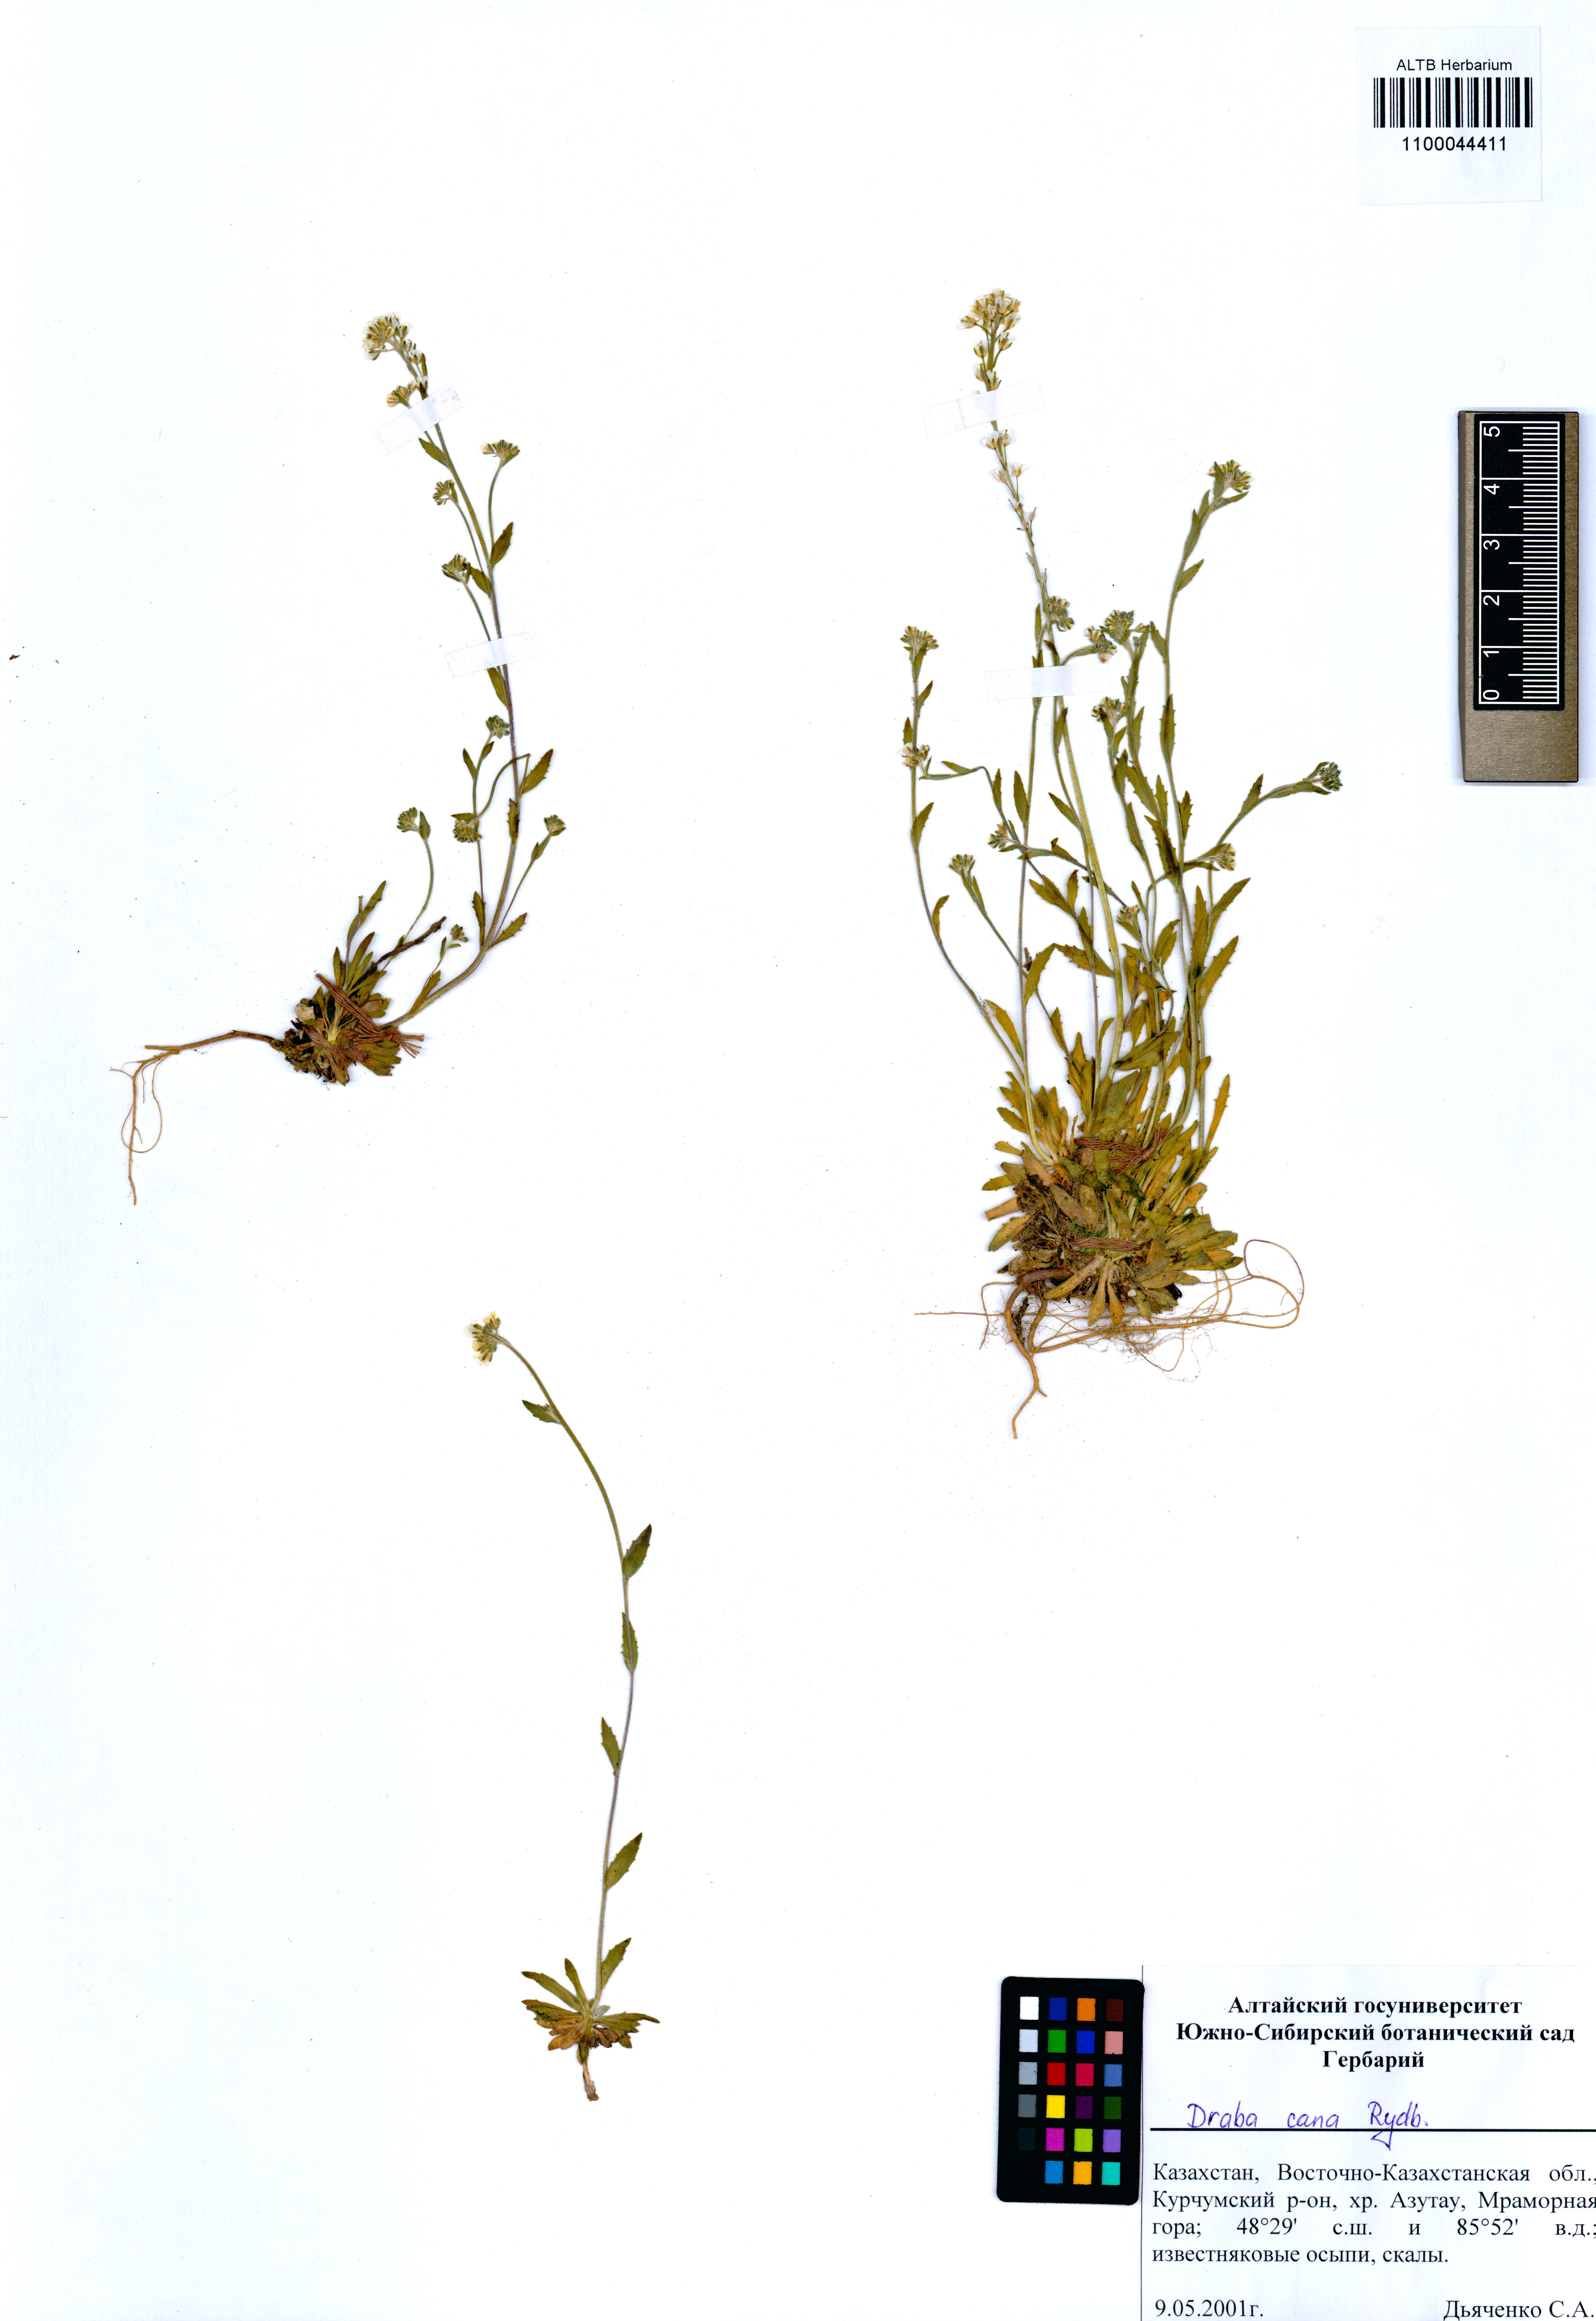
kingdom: Plantae
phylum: Tracheophyta
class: Magnoliopsida
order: Brassicales
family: Brassicaceae
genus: Draba
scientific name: Draba cana
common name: Hoary draba
